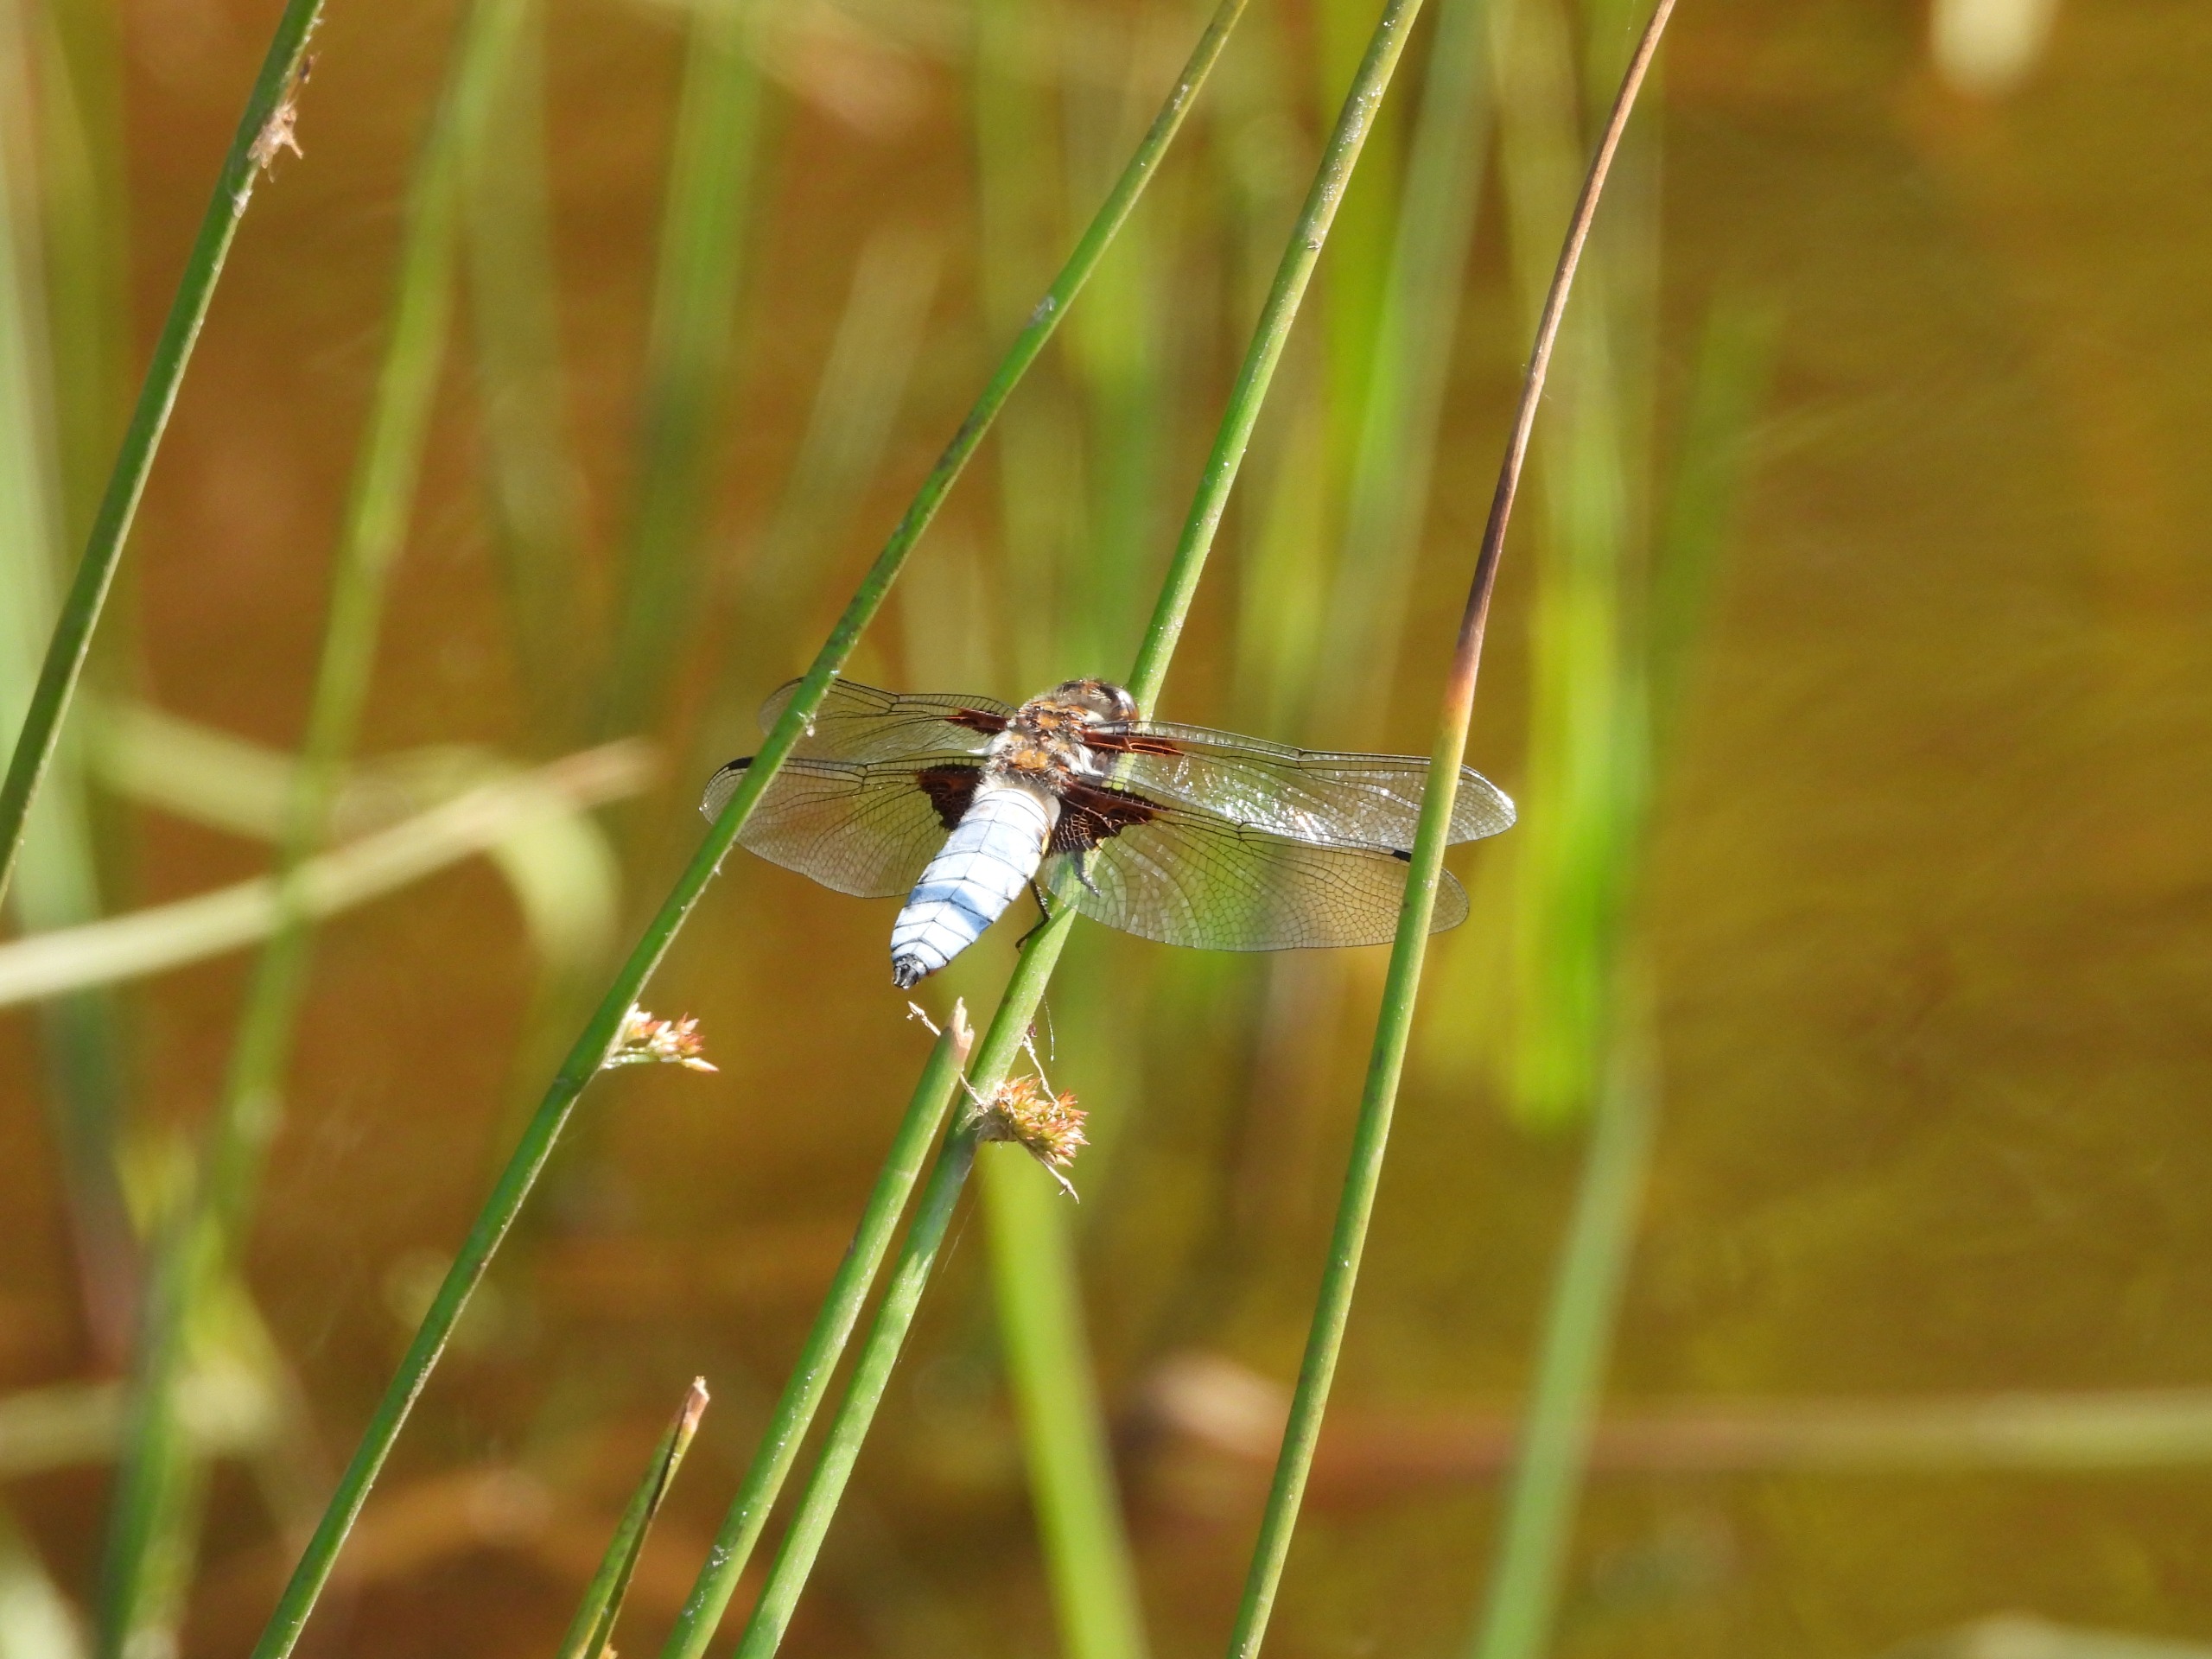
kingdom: Animalia
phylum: Arthropoda
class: Insecta
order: Odonata
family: Libellulidae
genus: Libellula
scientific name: Libellula depressa
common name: Blå libel
